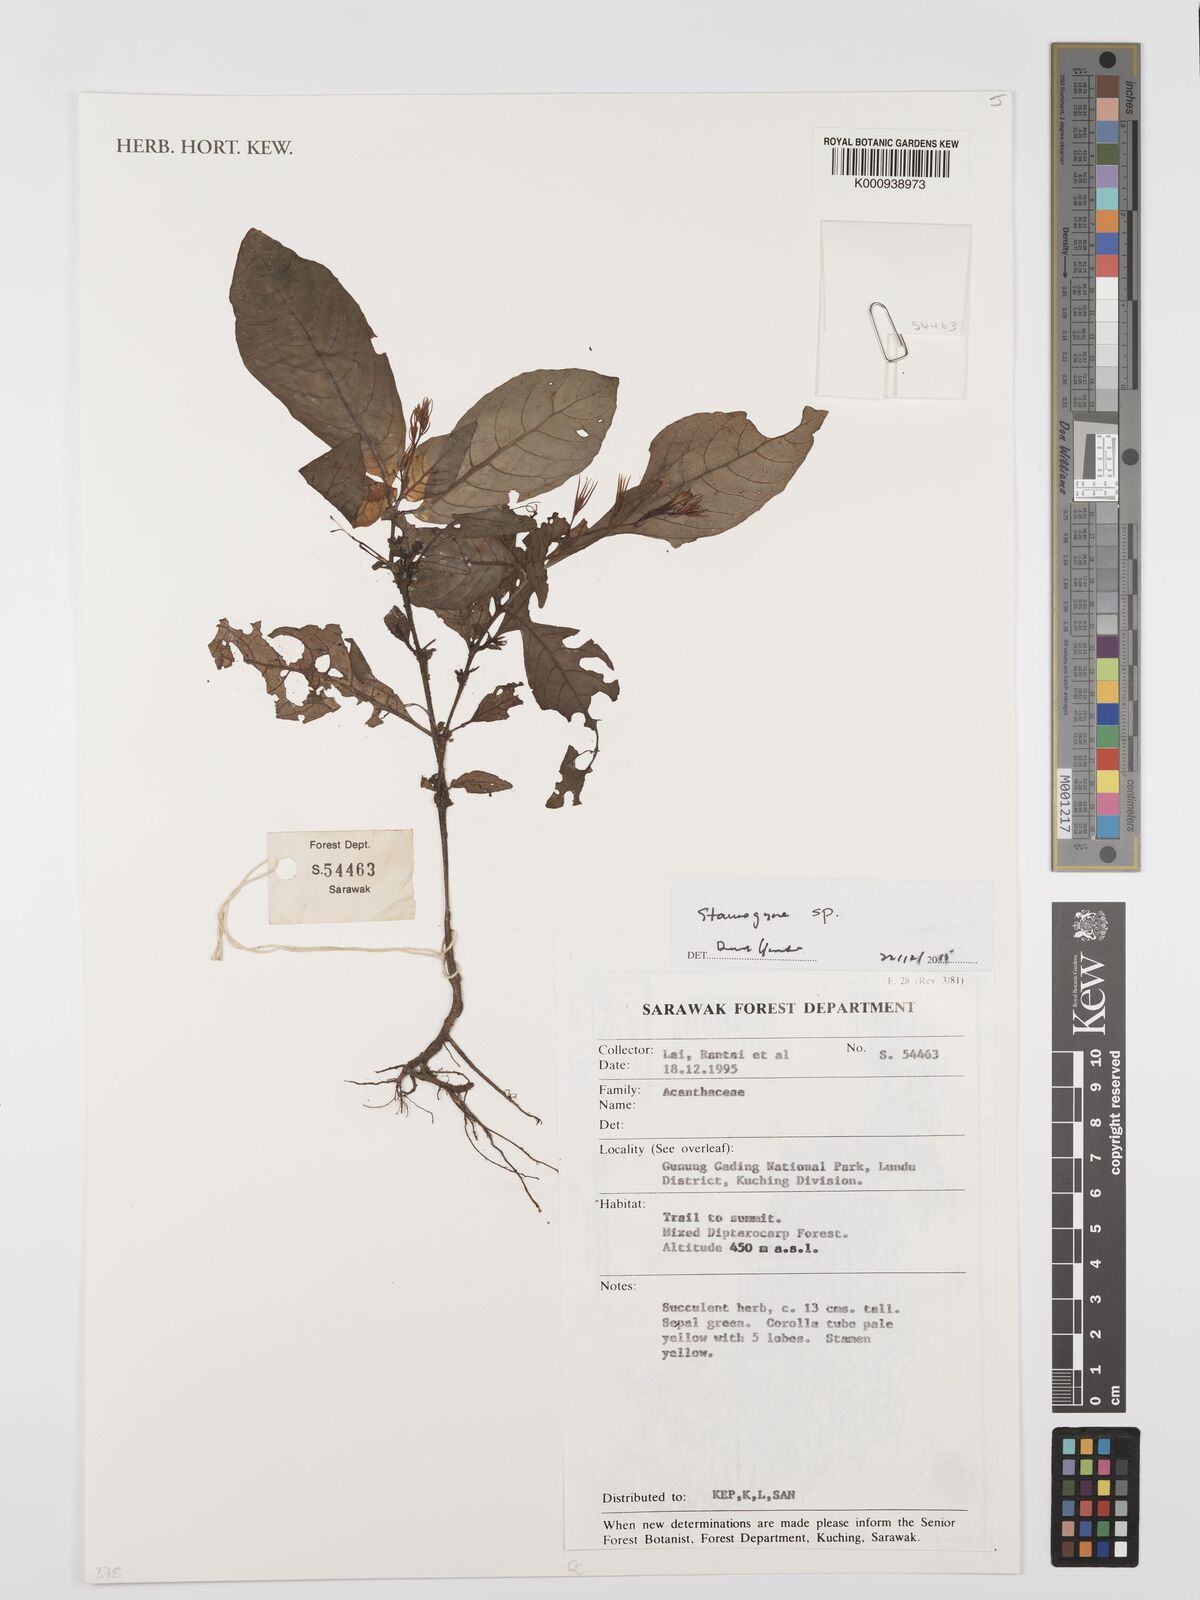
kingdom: Plantae
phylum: Tracheophyta
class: Magnoliopsida
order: Lamiales
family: Acanthaceae
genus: Staurogyne
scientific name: Staurogyne
